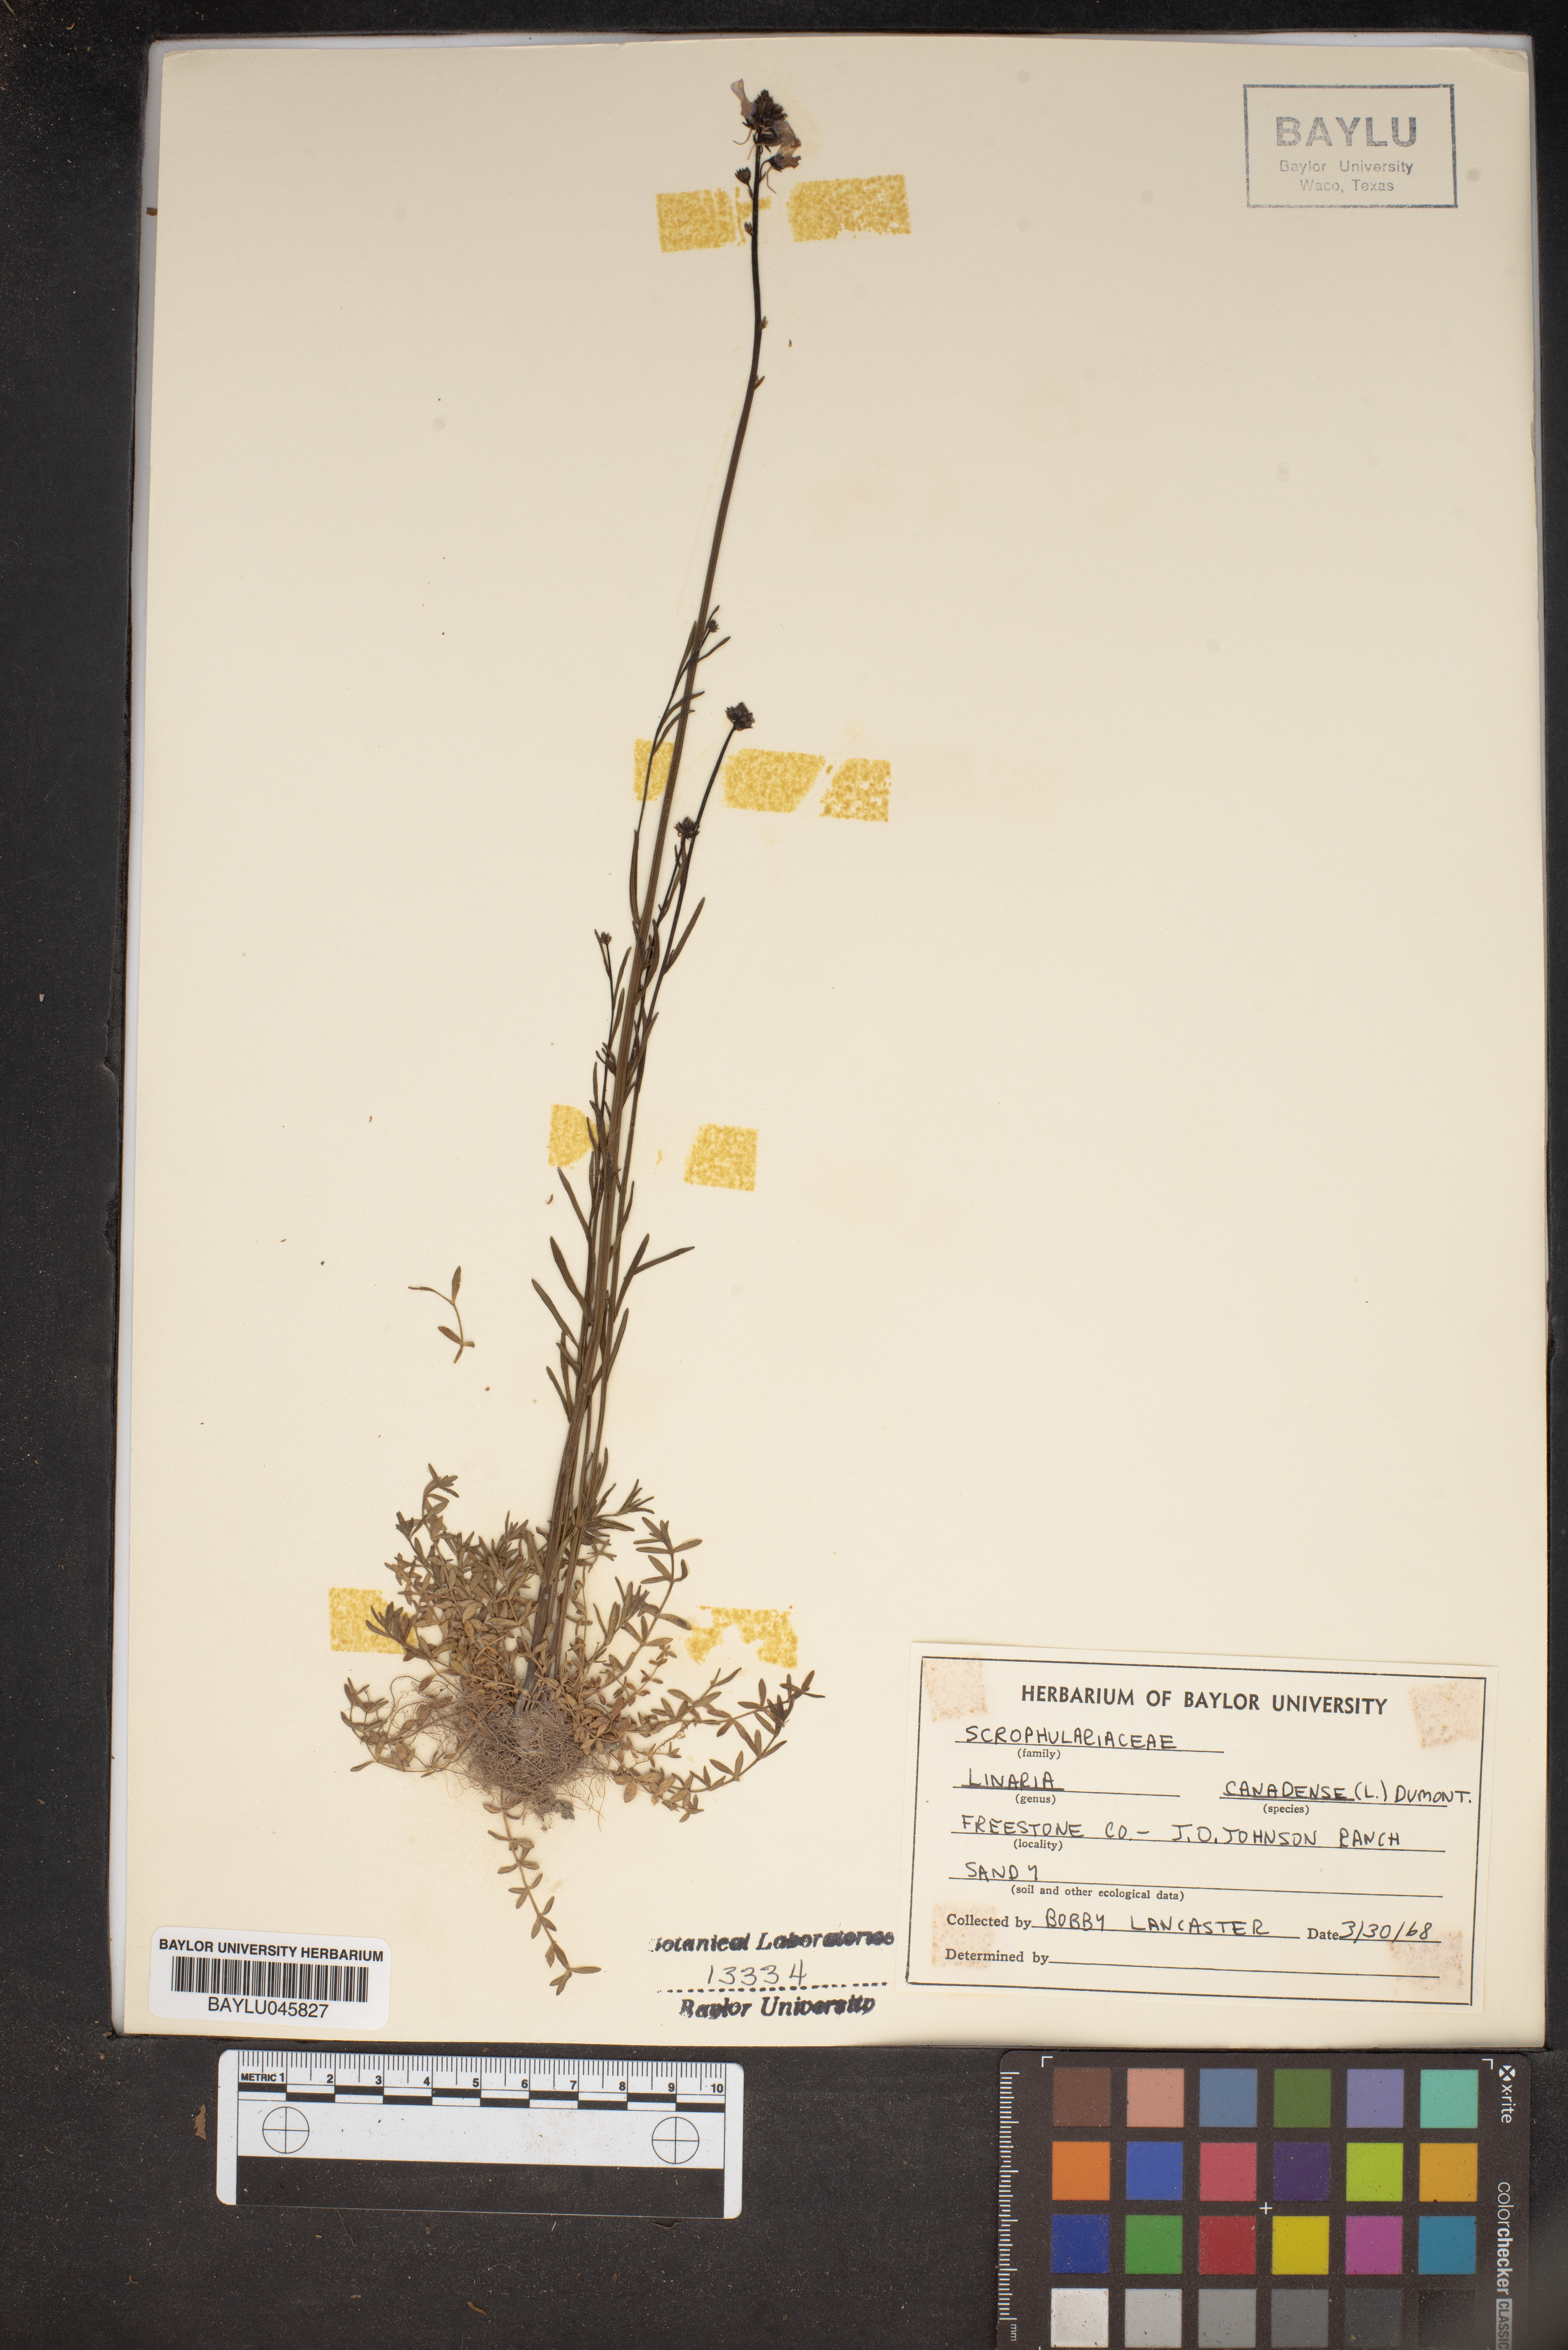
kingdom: Plantae
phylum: Tracheophyta
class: Magnoliopsida
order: Lamiales
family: Plantaginaceae
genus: Nuttallanthus
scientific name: Nuttallanthus canadensis
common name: Blue toadflax
